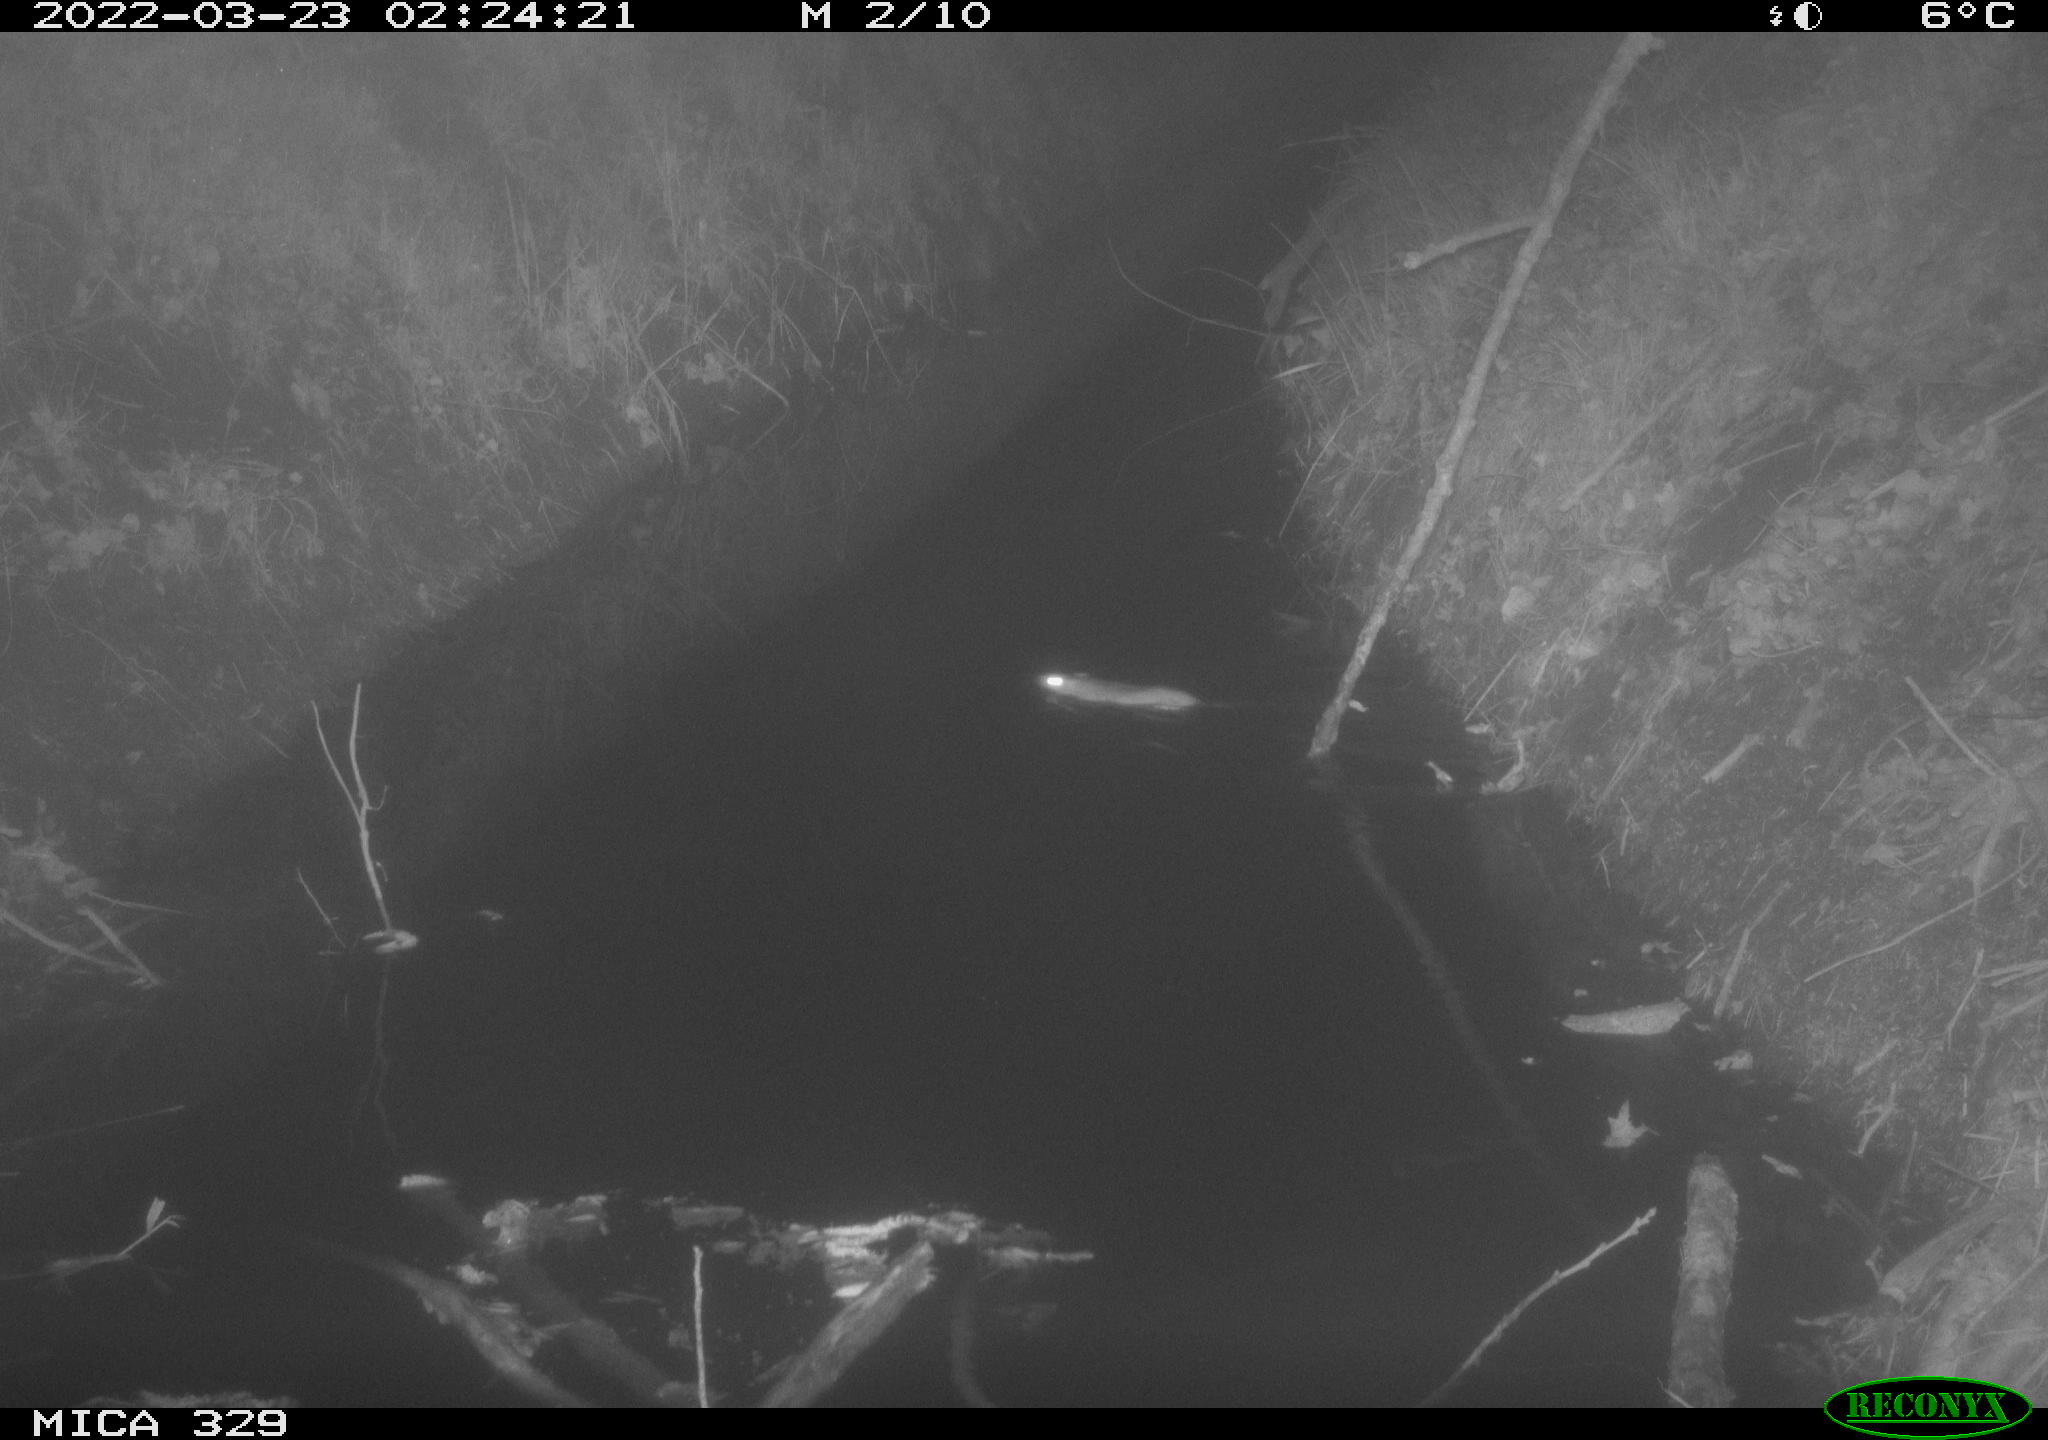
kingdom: Animalia
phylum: Chordata
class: Mammalia
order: Rodentia
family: Muridae
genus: Rattus
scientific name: Rattus norvegicus
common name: Brown rat
